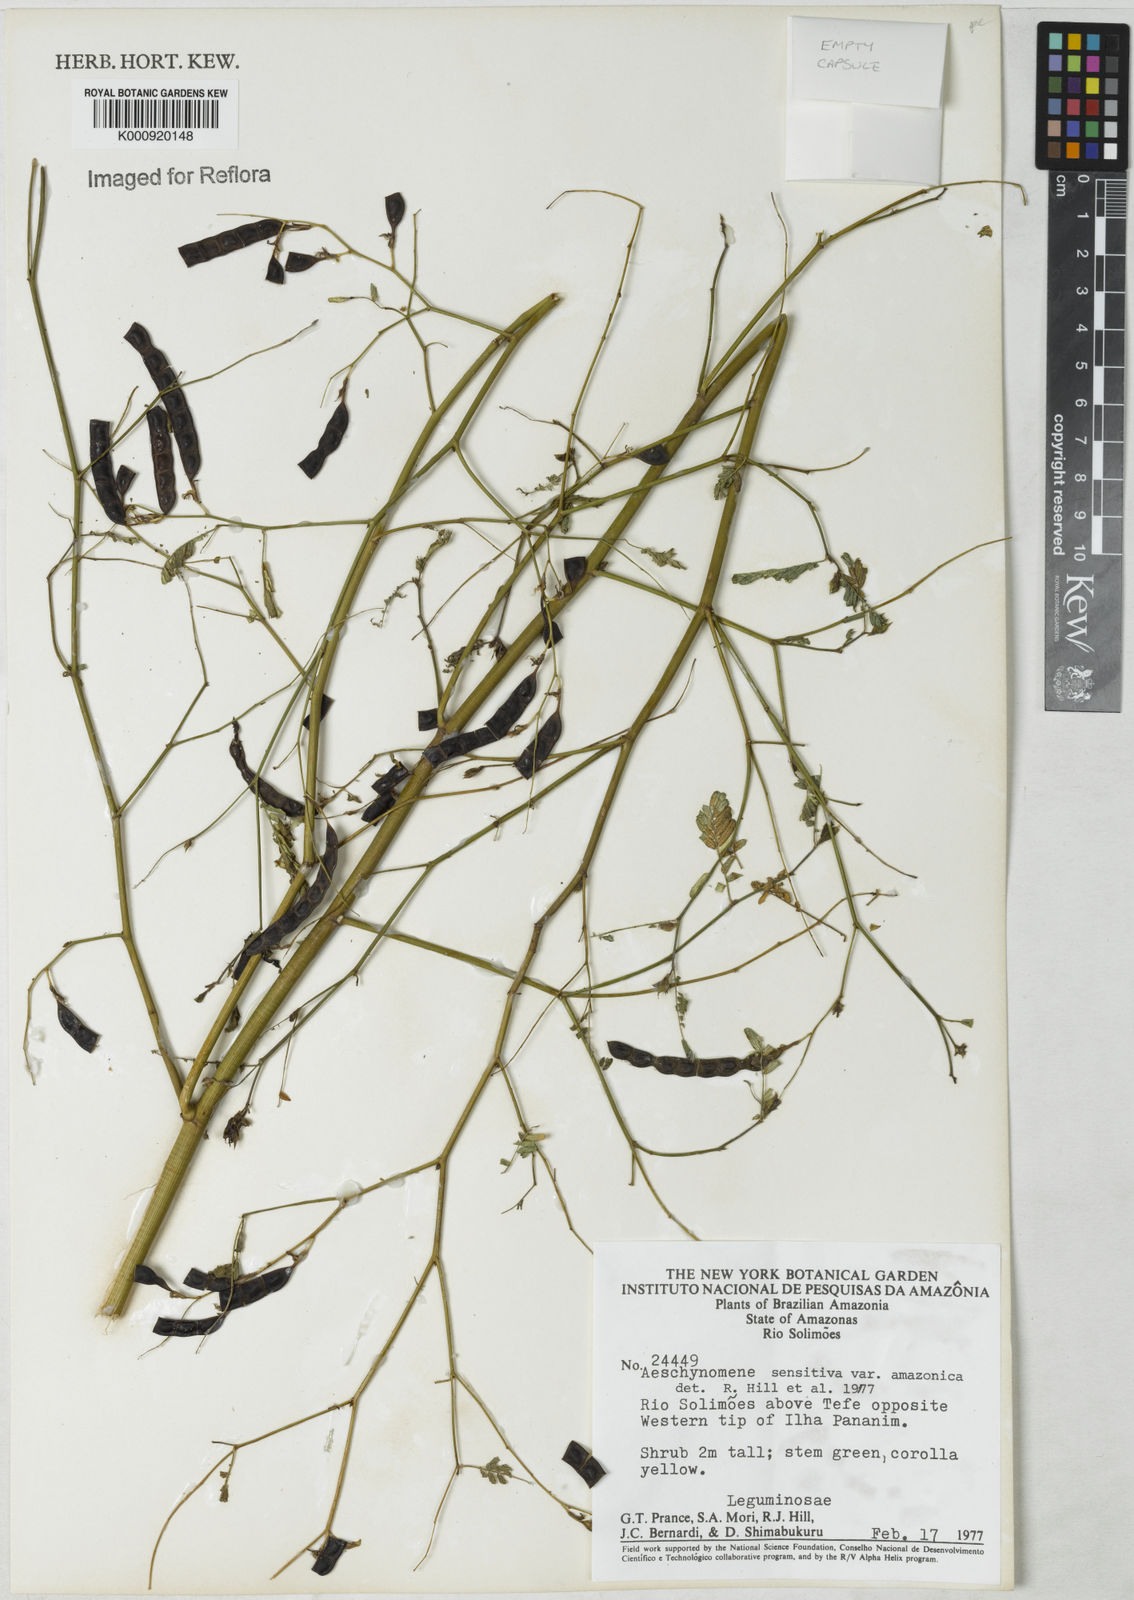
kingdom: Plantae
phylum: Tracheophyta
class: Magnoliopsida
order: Fabales
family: Fabaceae
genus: Aeschynomene
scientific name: Aeschynomene sensitiva
